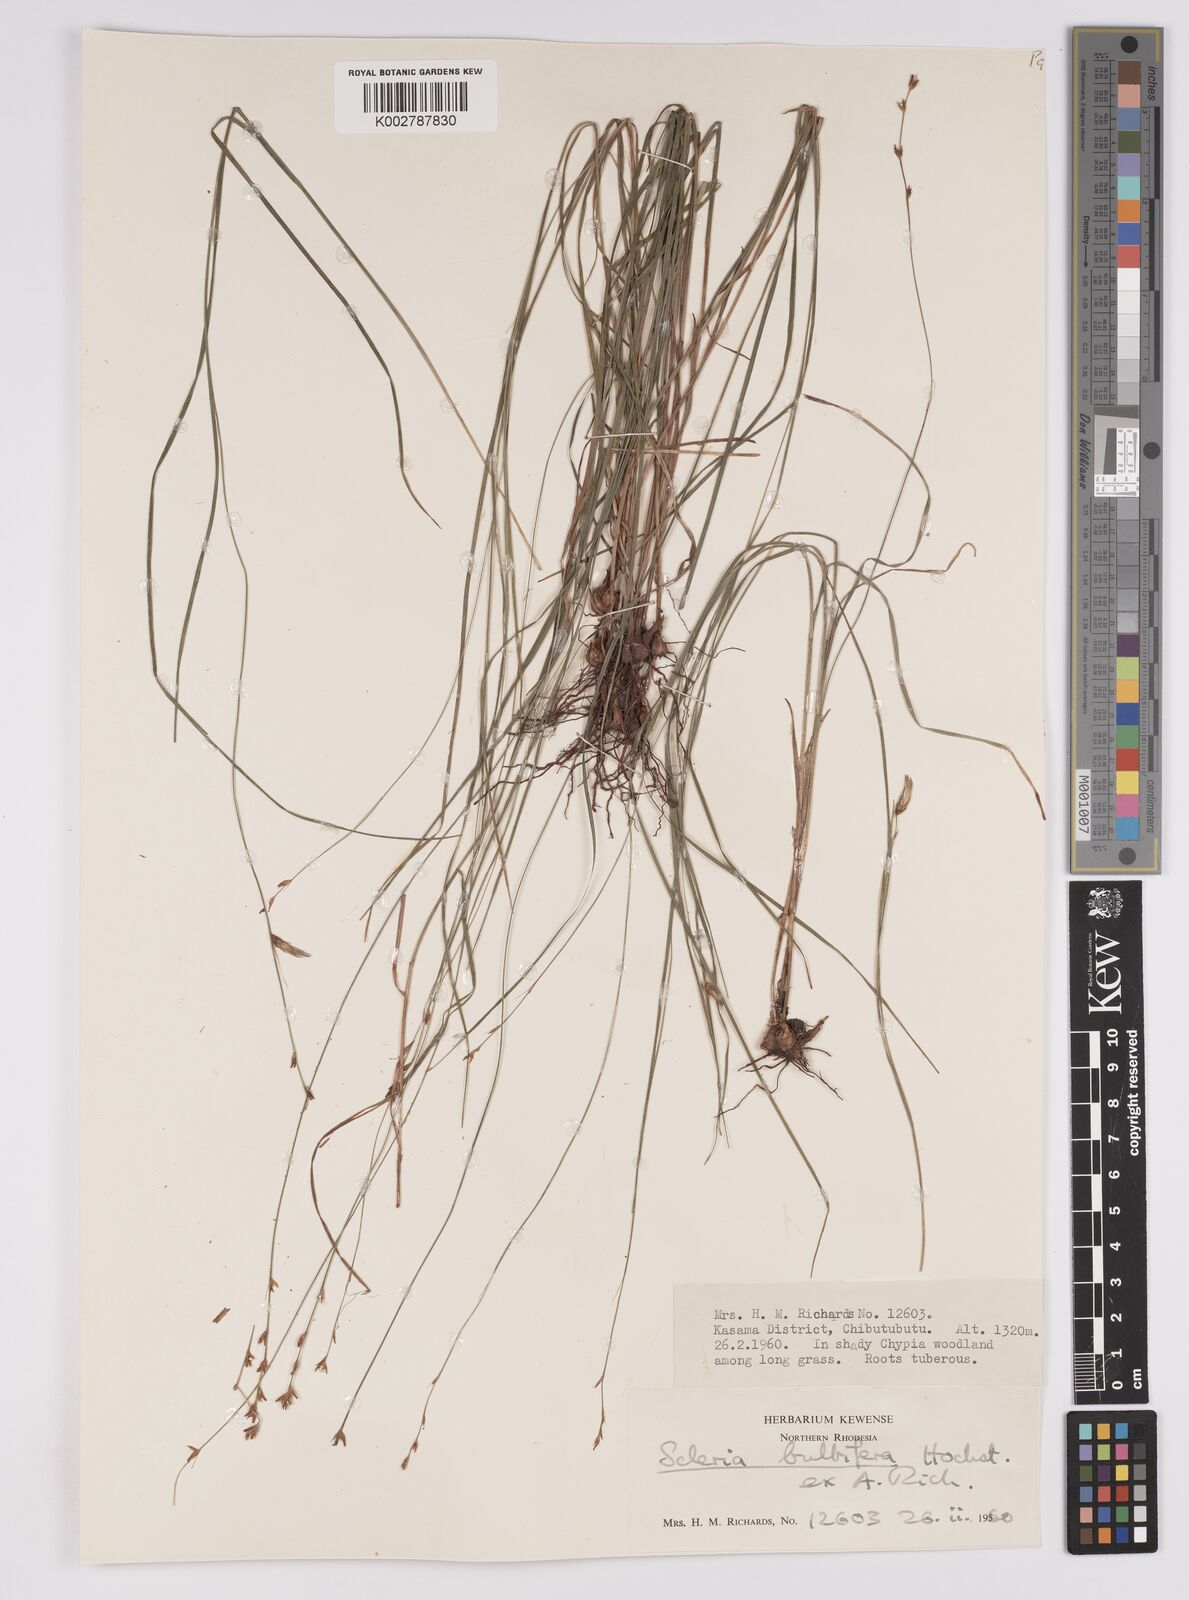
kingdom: Plantae
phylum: Tracheophyta
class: Liliopsida
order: Poales
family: Cyperaceae
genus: Scleria
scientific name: Scleria bulbifera
